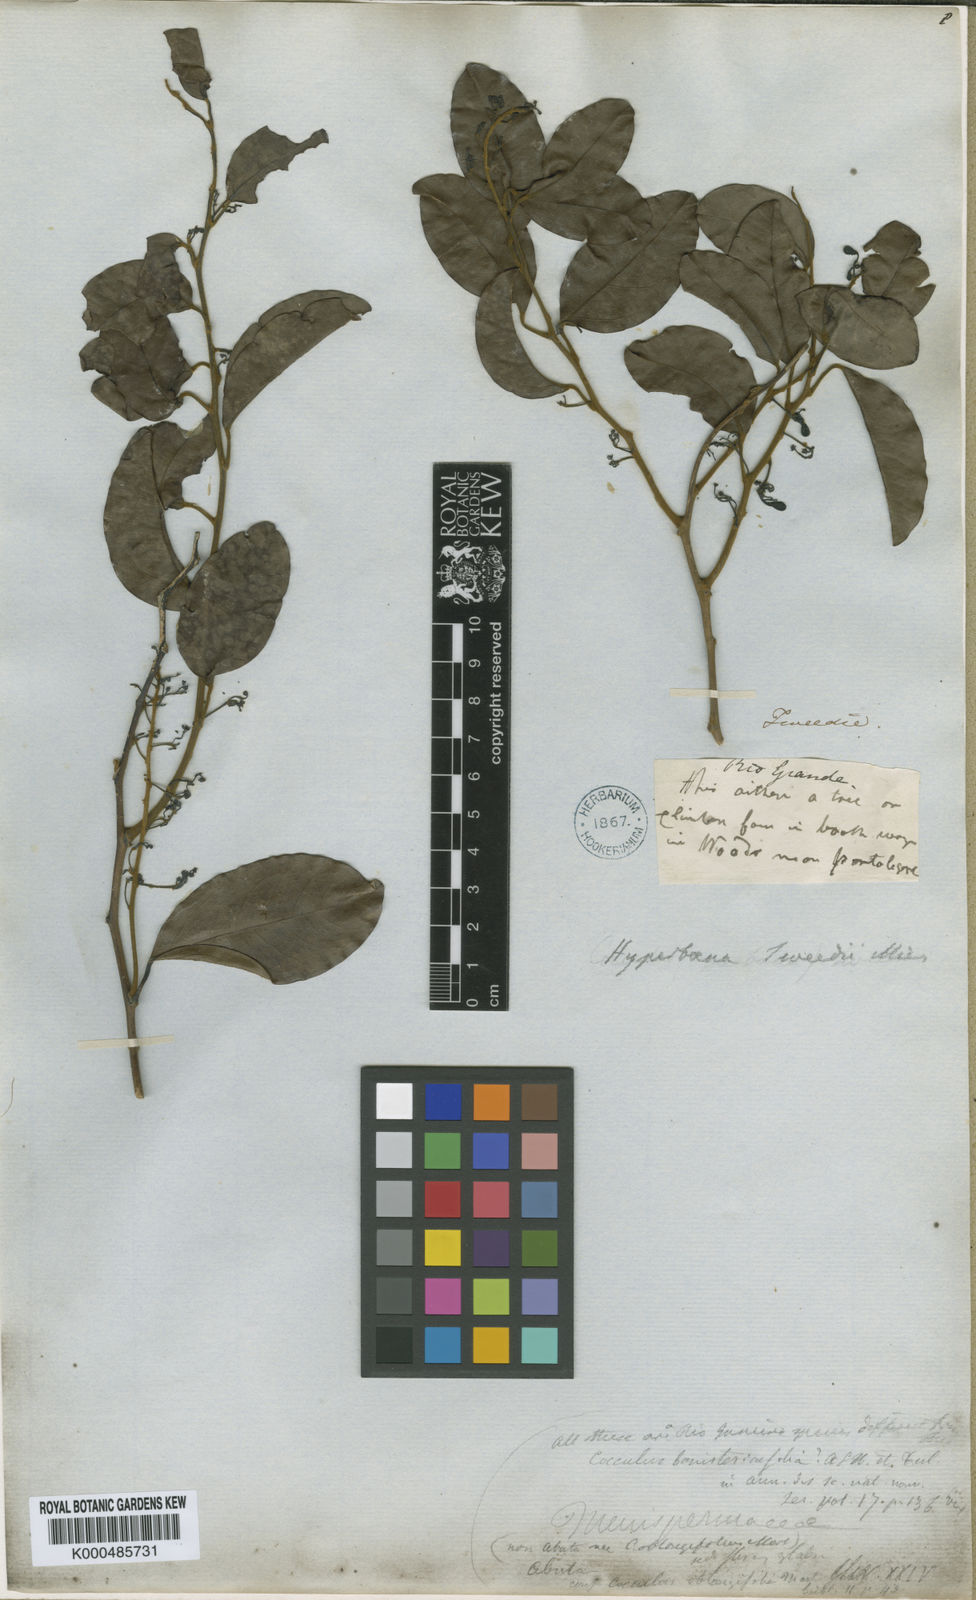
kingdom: Plantae
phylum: Tracheophyta
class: Magnoliopsida
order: Ranunculales
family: Menispermaceae
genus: Hyperbaena
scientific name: Hyperbaena domingensis
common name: Forest snakevine
